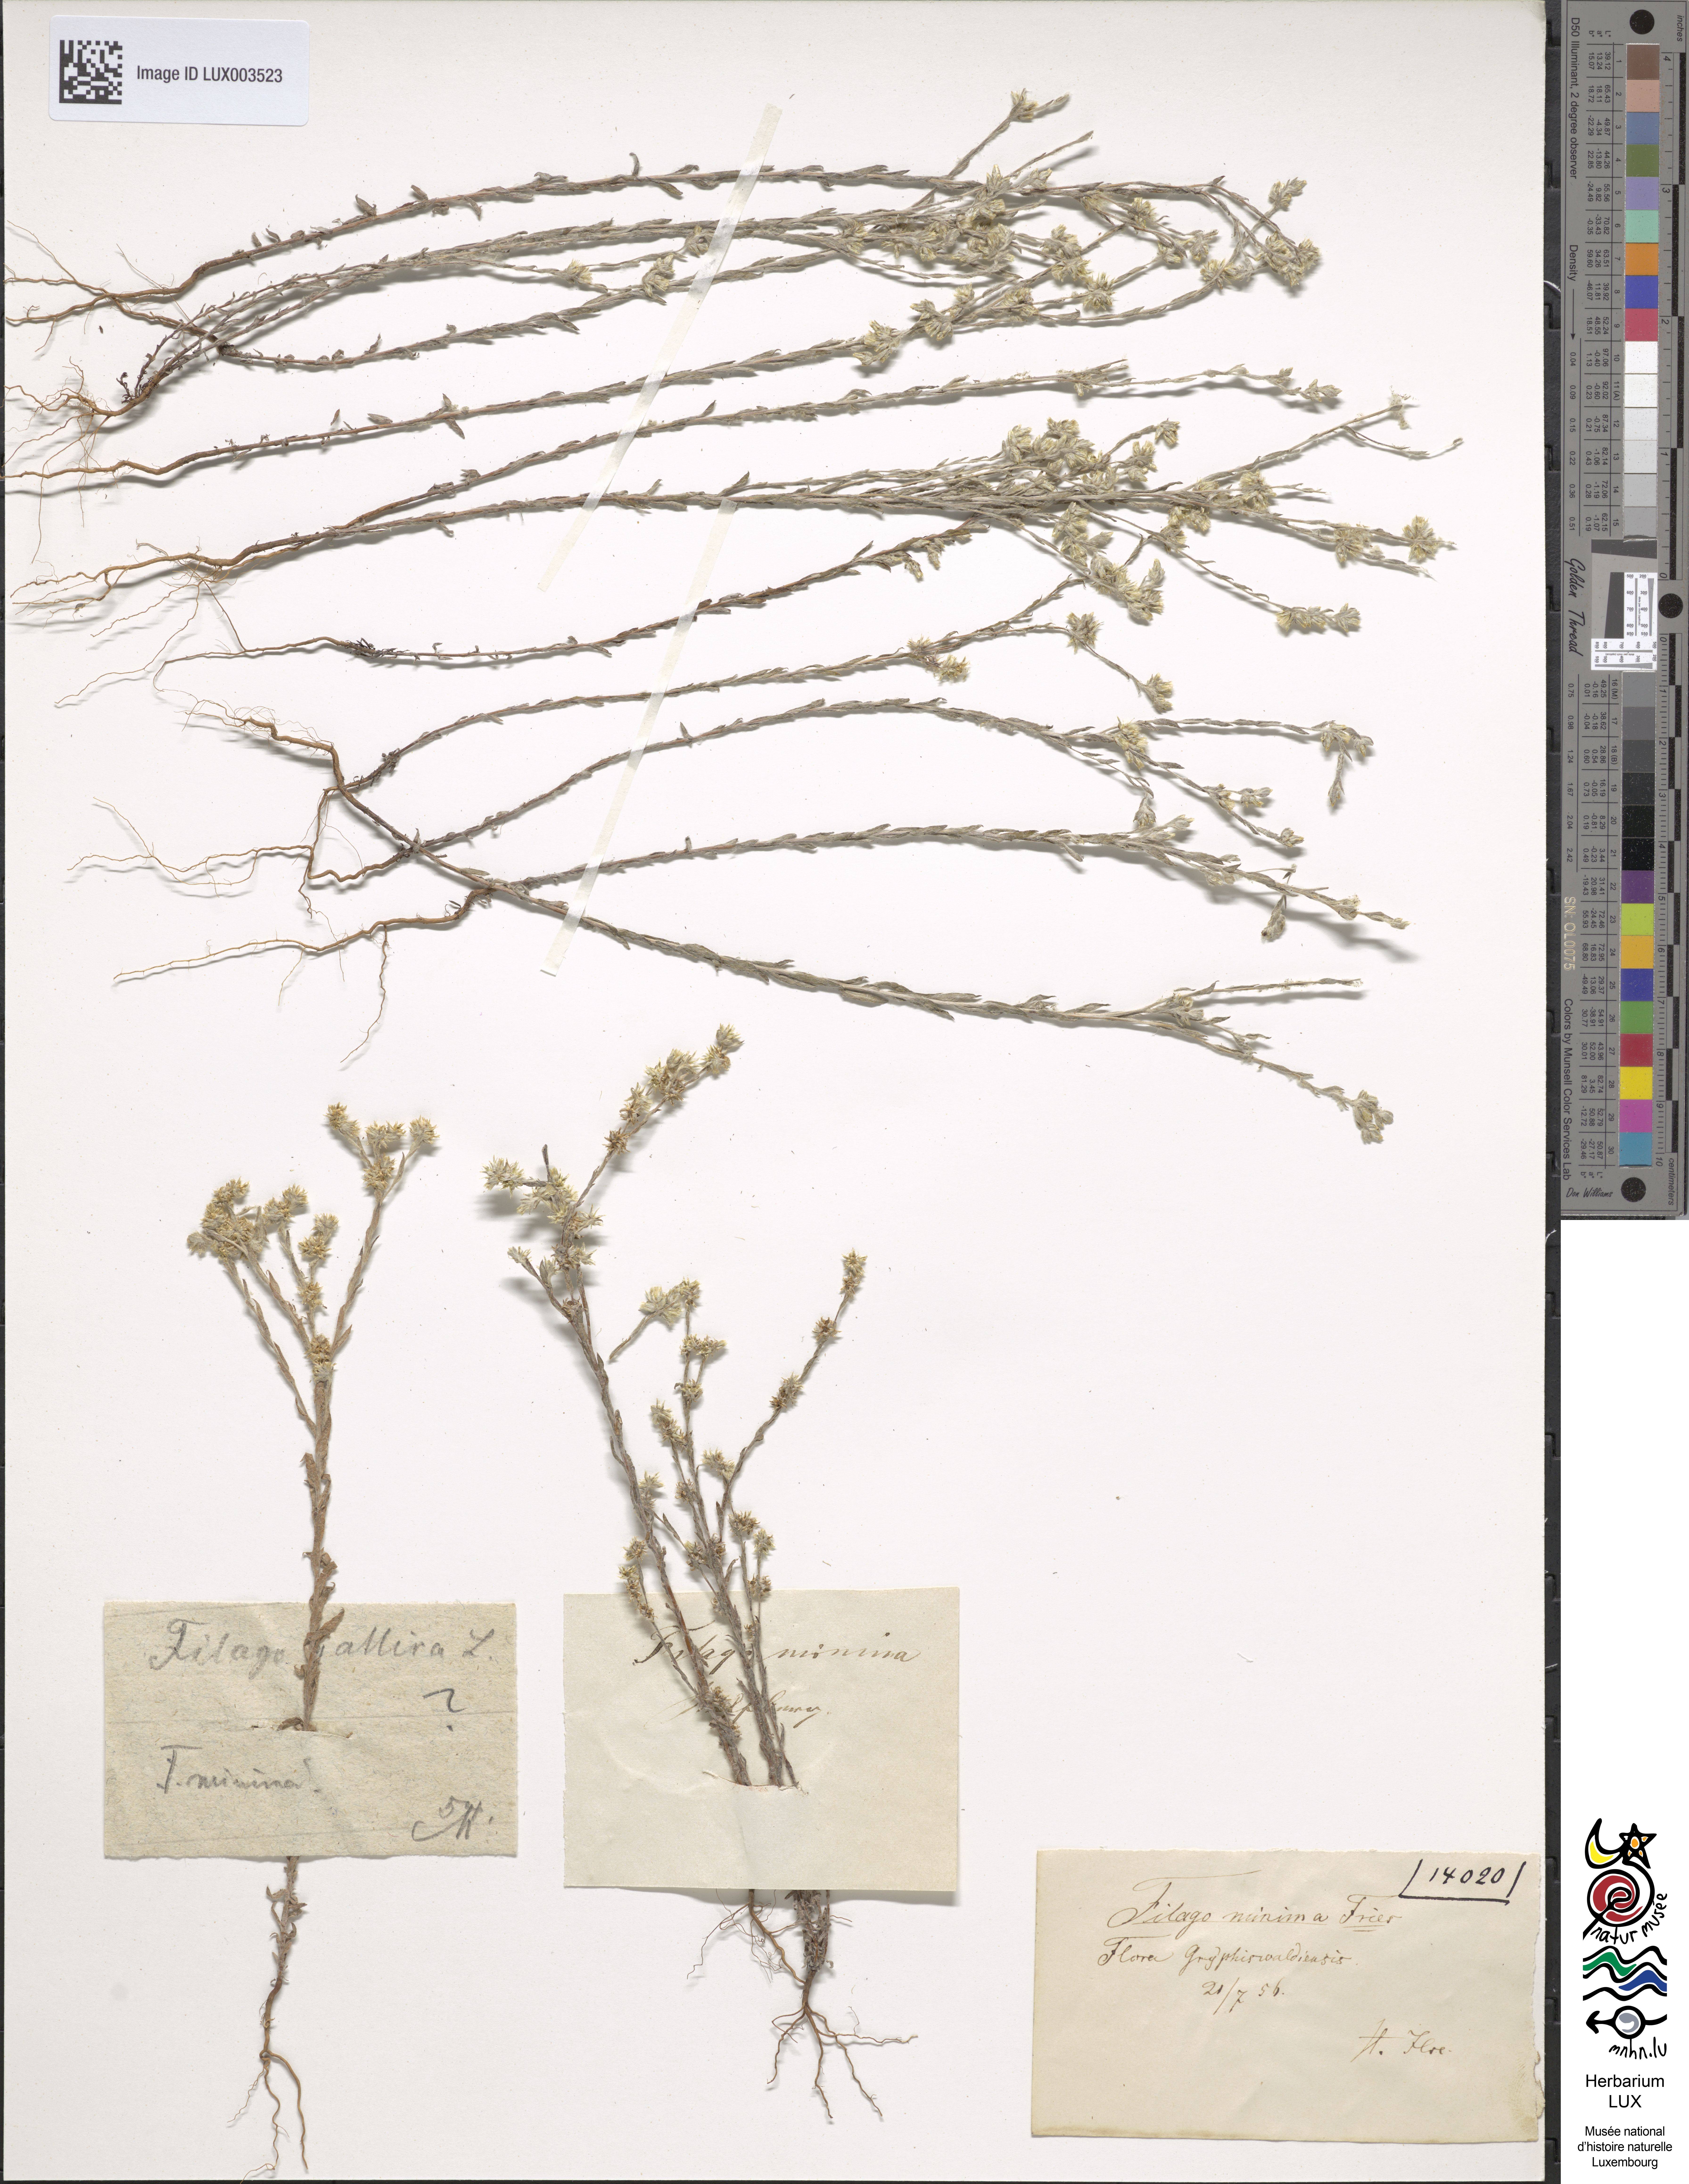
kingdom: Plantae
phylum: Tracheophyta
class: Magnoliopsida
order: Asterales
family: Asteraceae
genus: Logfia
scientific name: Logfia minima
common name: Little cottonrose
